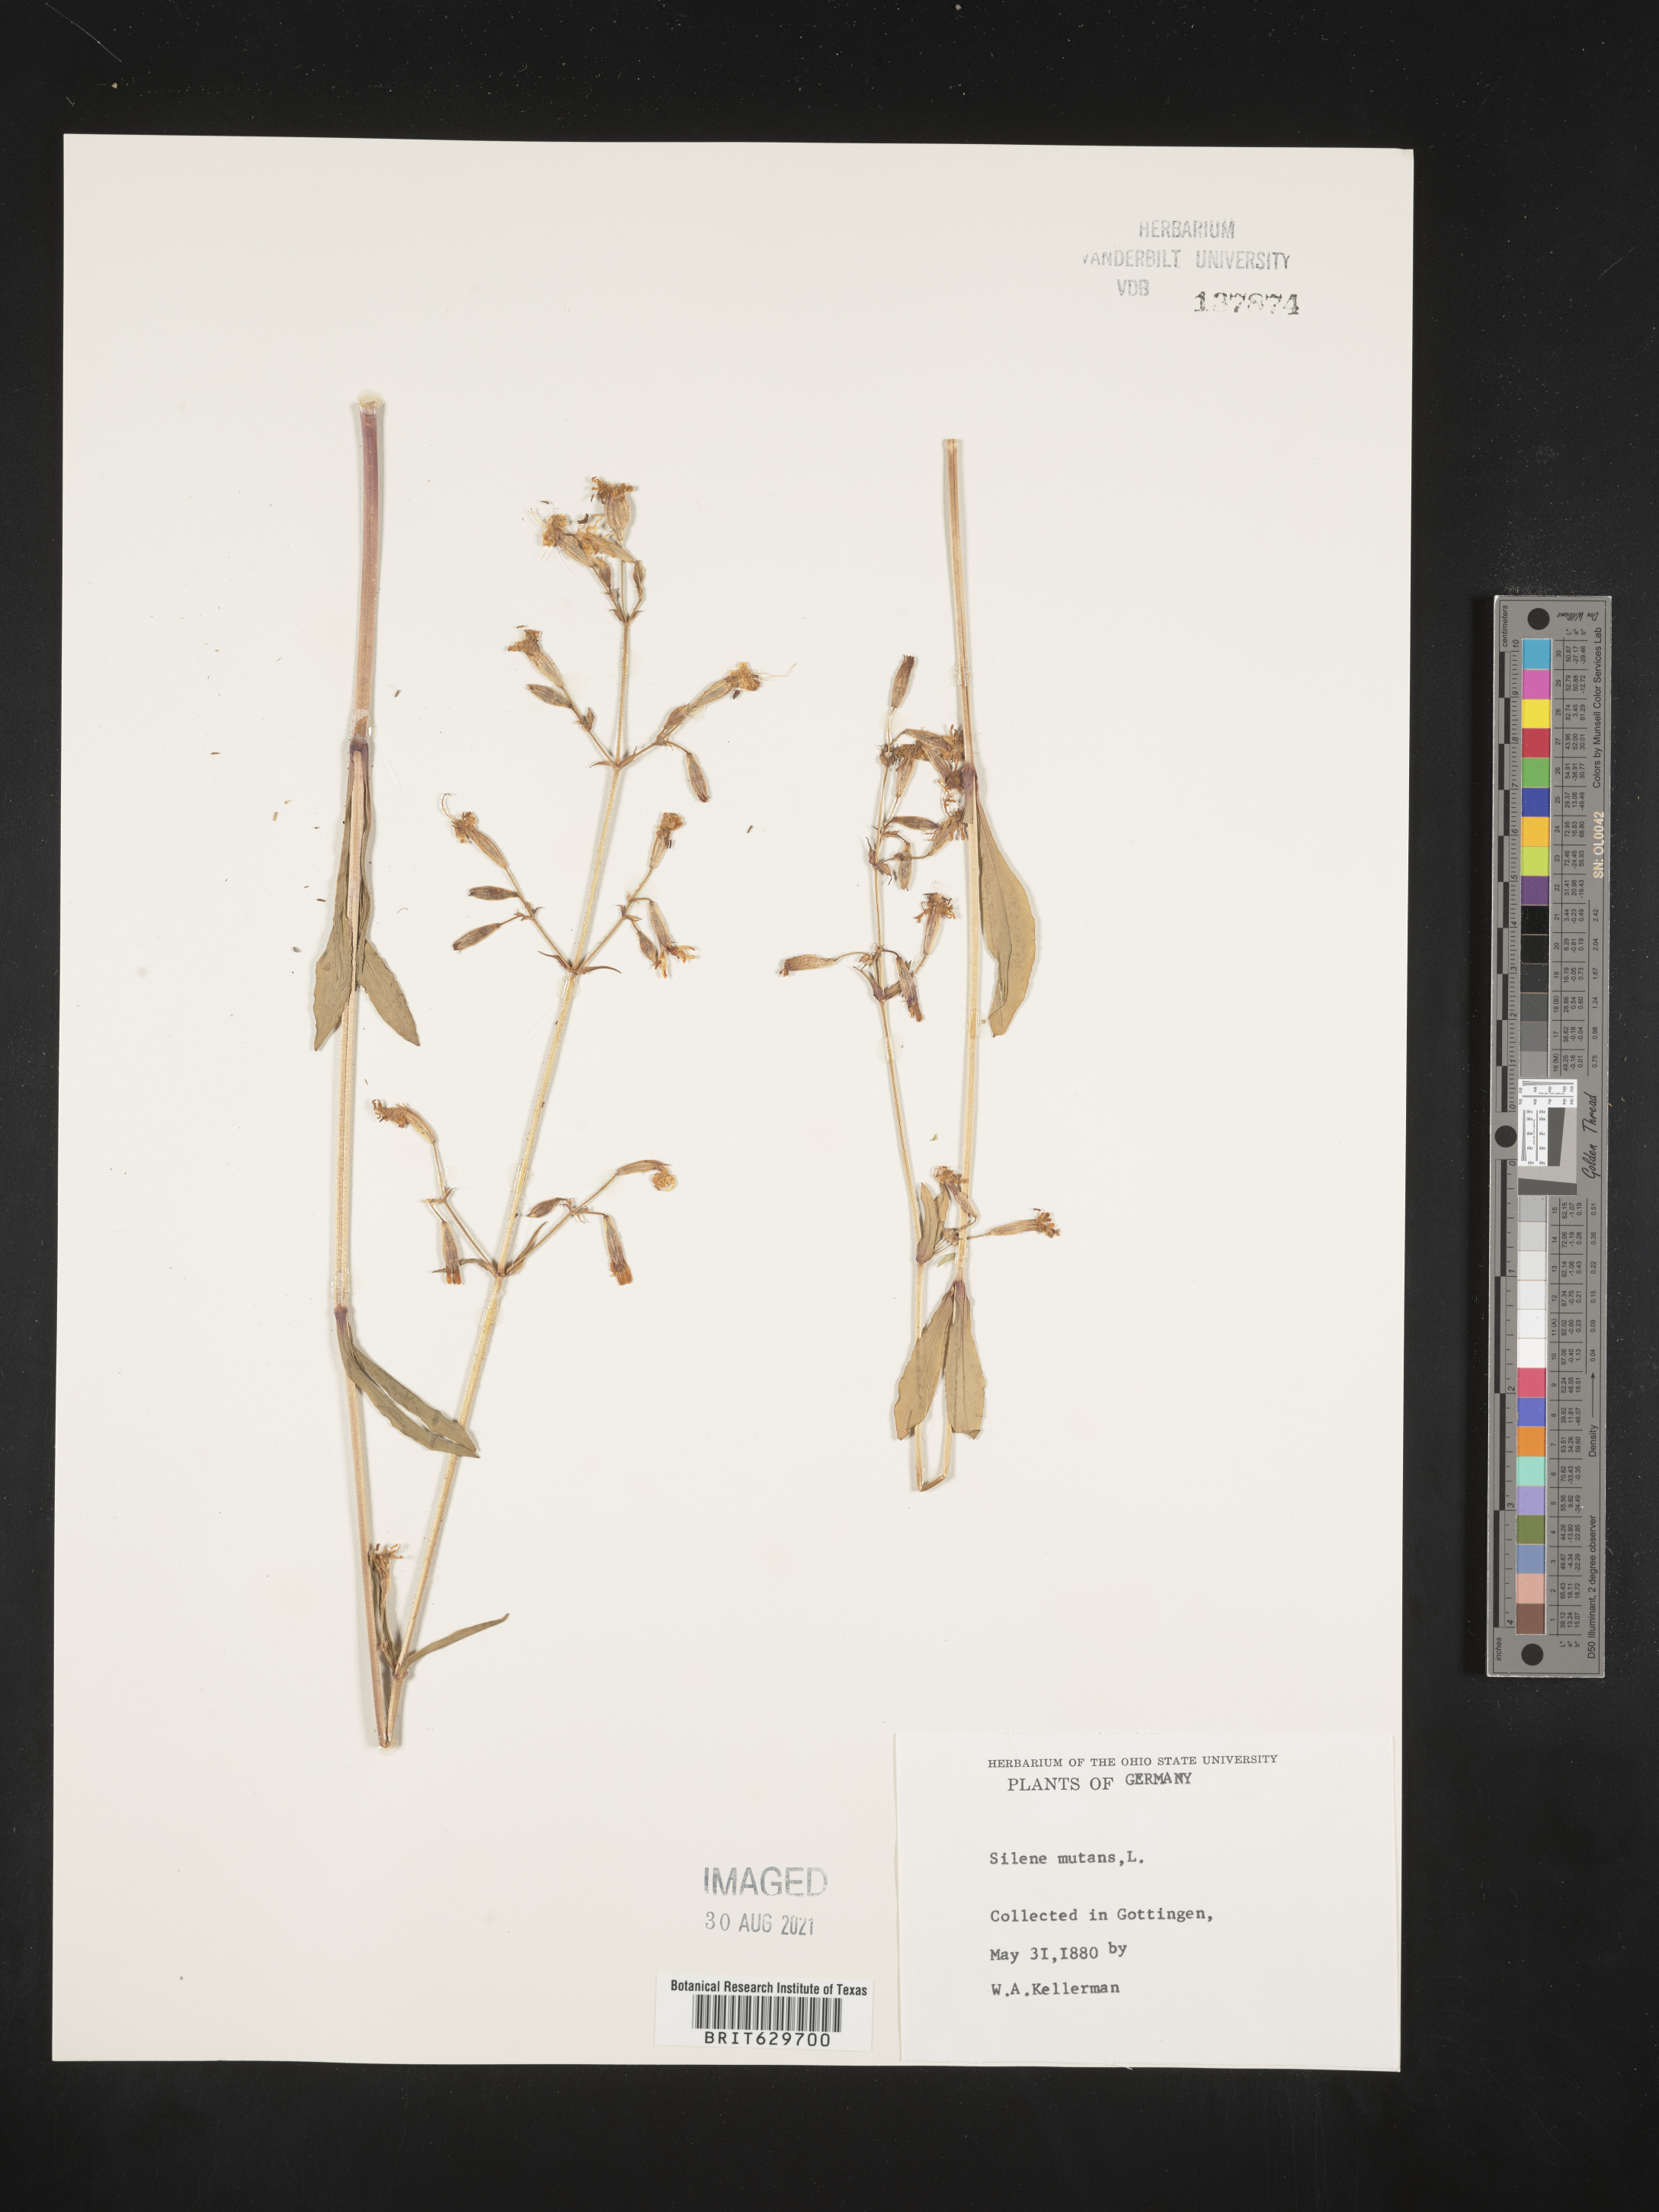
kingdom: Plantae
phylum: Tracheophyta
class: Magnoliopsida
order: Caryophyllales
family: Caryophyllaceae
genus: Silene
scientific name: Silene nutans
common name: Nottingham catchfly
